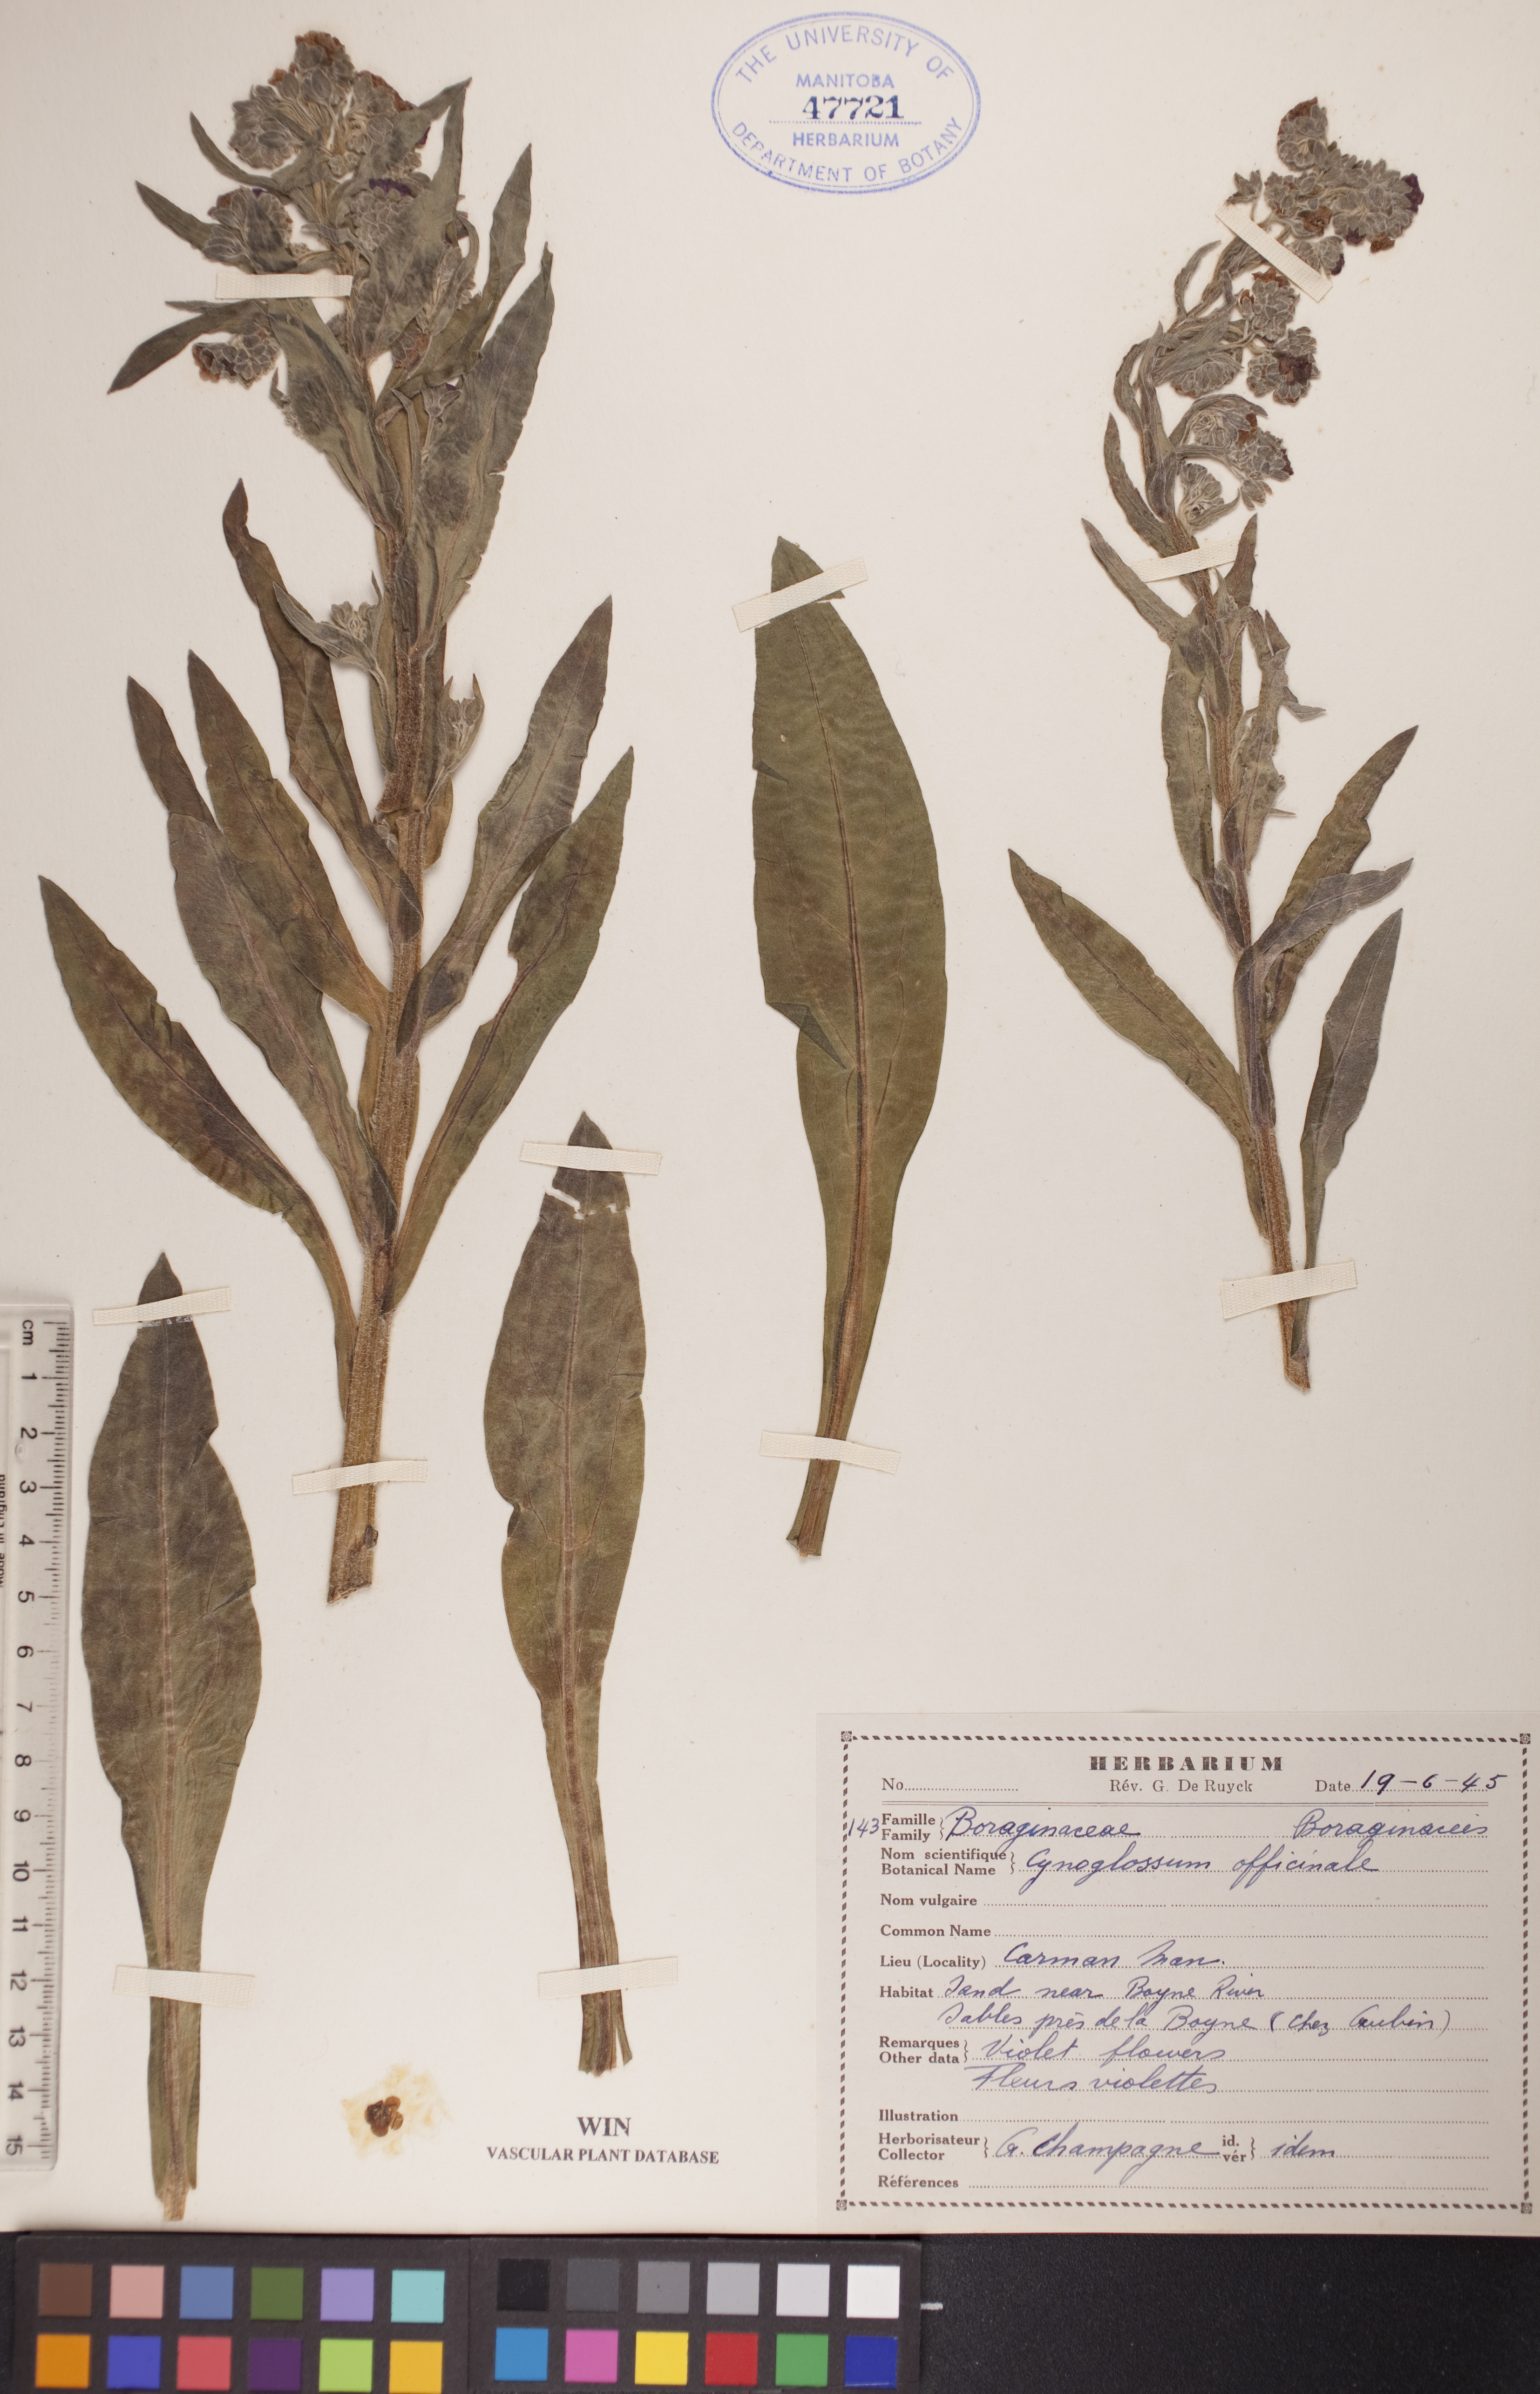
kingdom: Plantae
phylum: Tracheophyta
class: Magnoliopsida
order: Boraginales
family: Boraginaceae
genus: Cynoglossum
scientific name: Cynoglossum officinale
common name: Hound's-tongue
